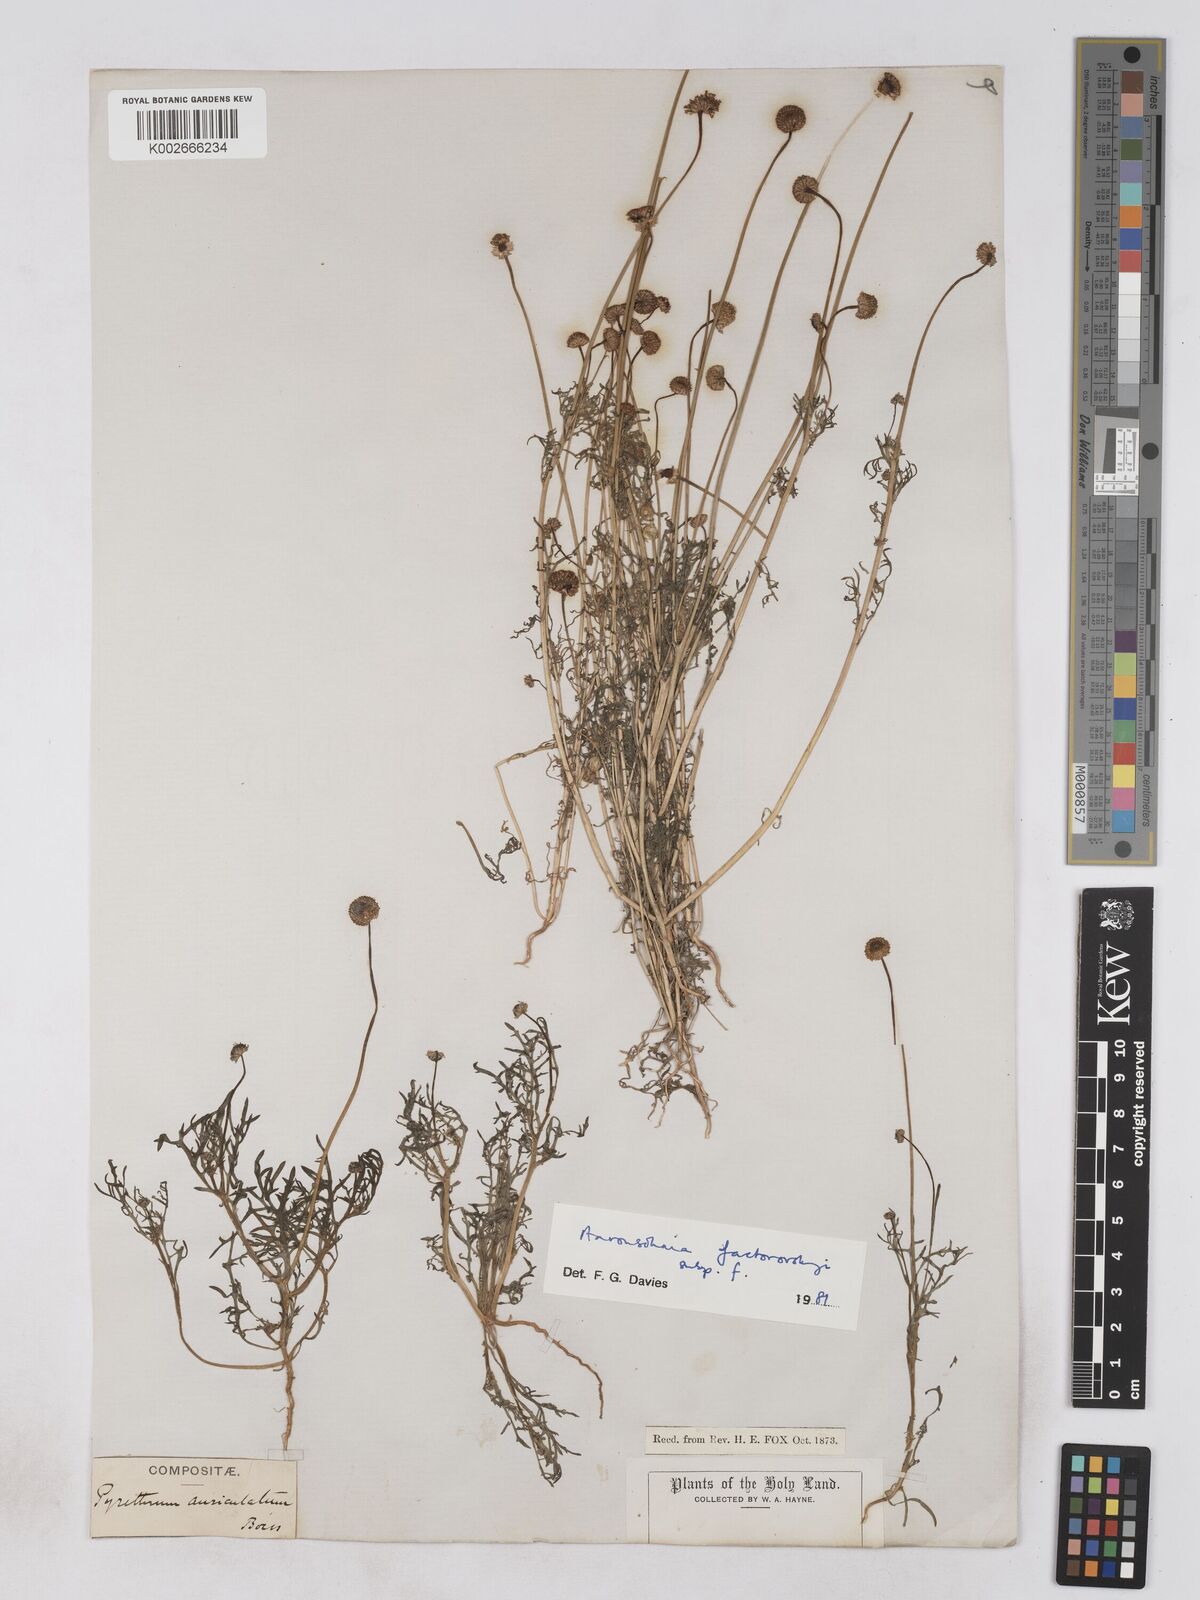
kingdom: Plantae
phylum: Tracheophyta
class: Magnoliopsida
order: Asterales
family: Asteraceae
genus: Otoglyphis
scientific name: Otoglyphis factorovskyi
